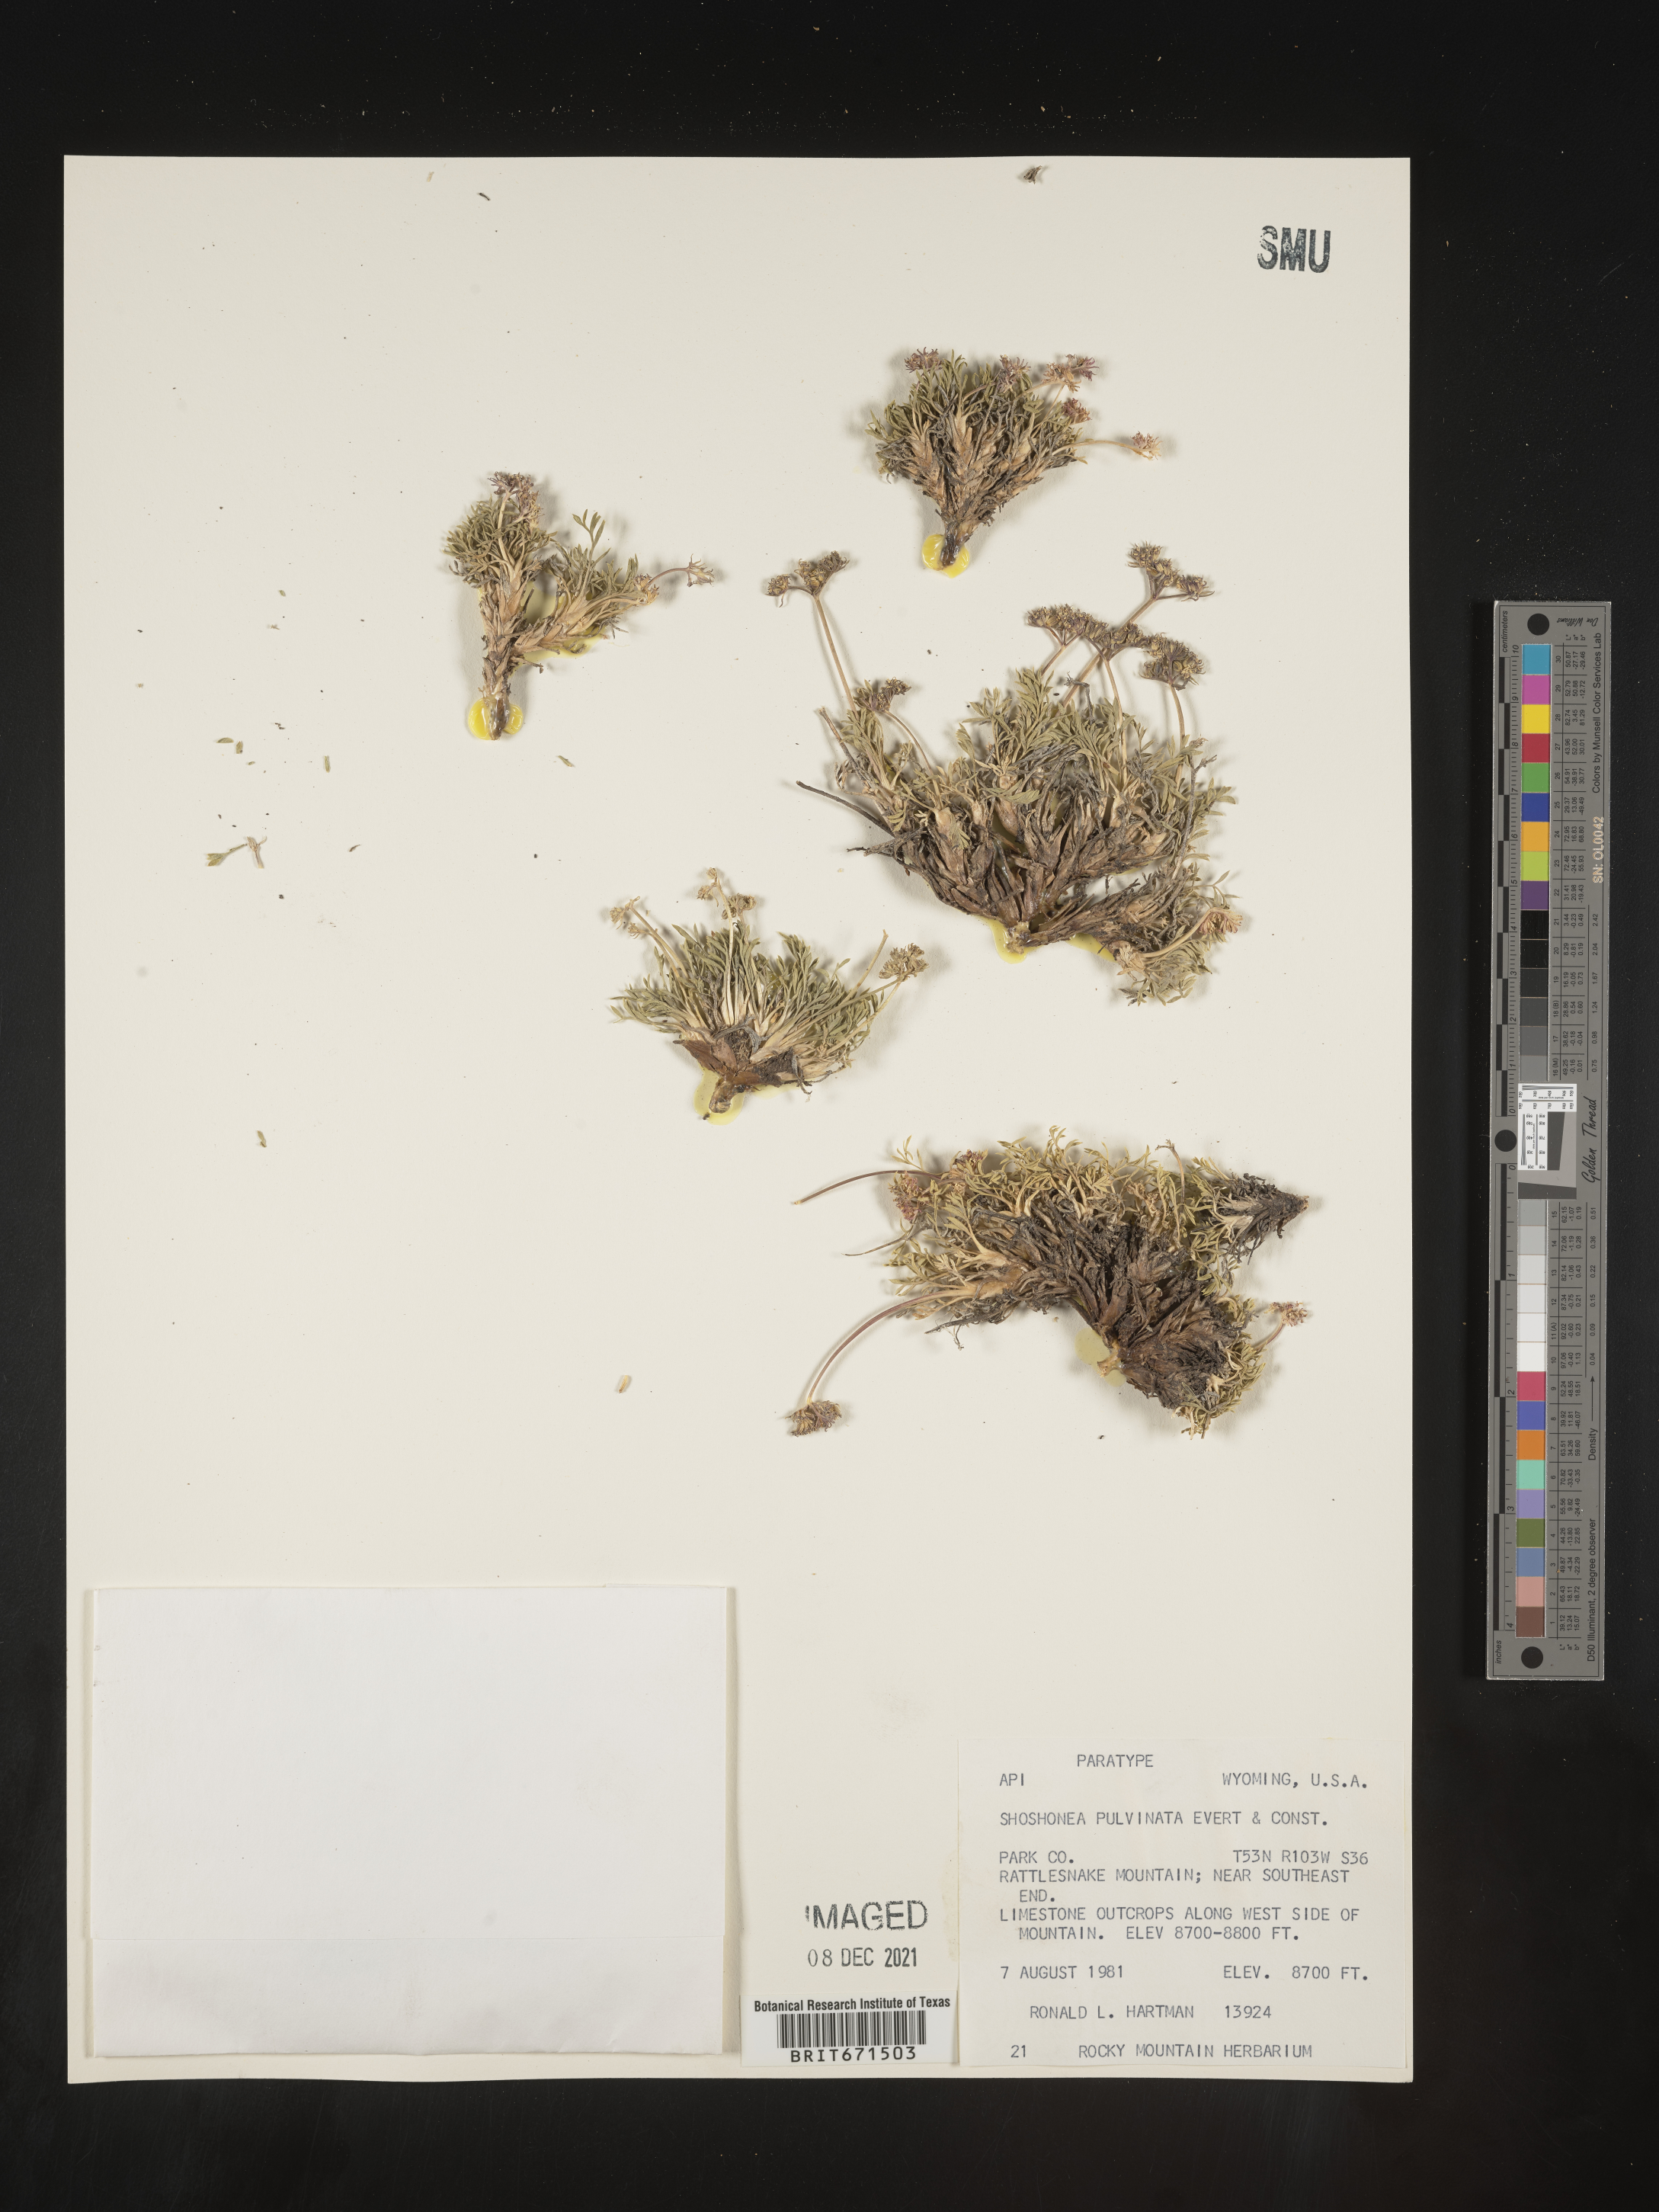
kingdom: Plantae
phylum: Tracheophyta
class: Magnoliopsida
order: Apiales
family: Apiaceae
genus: Shoshonea
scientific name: Shoshonea pulvinata
